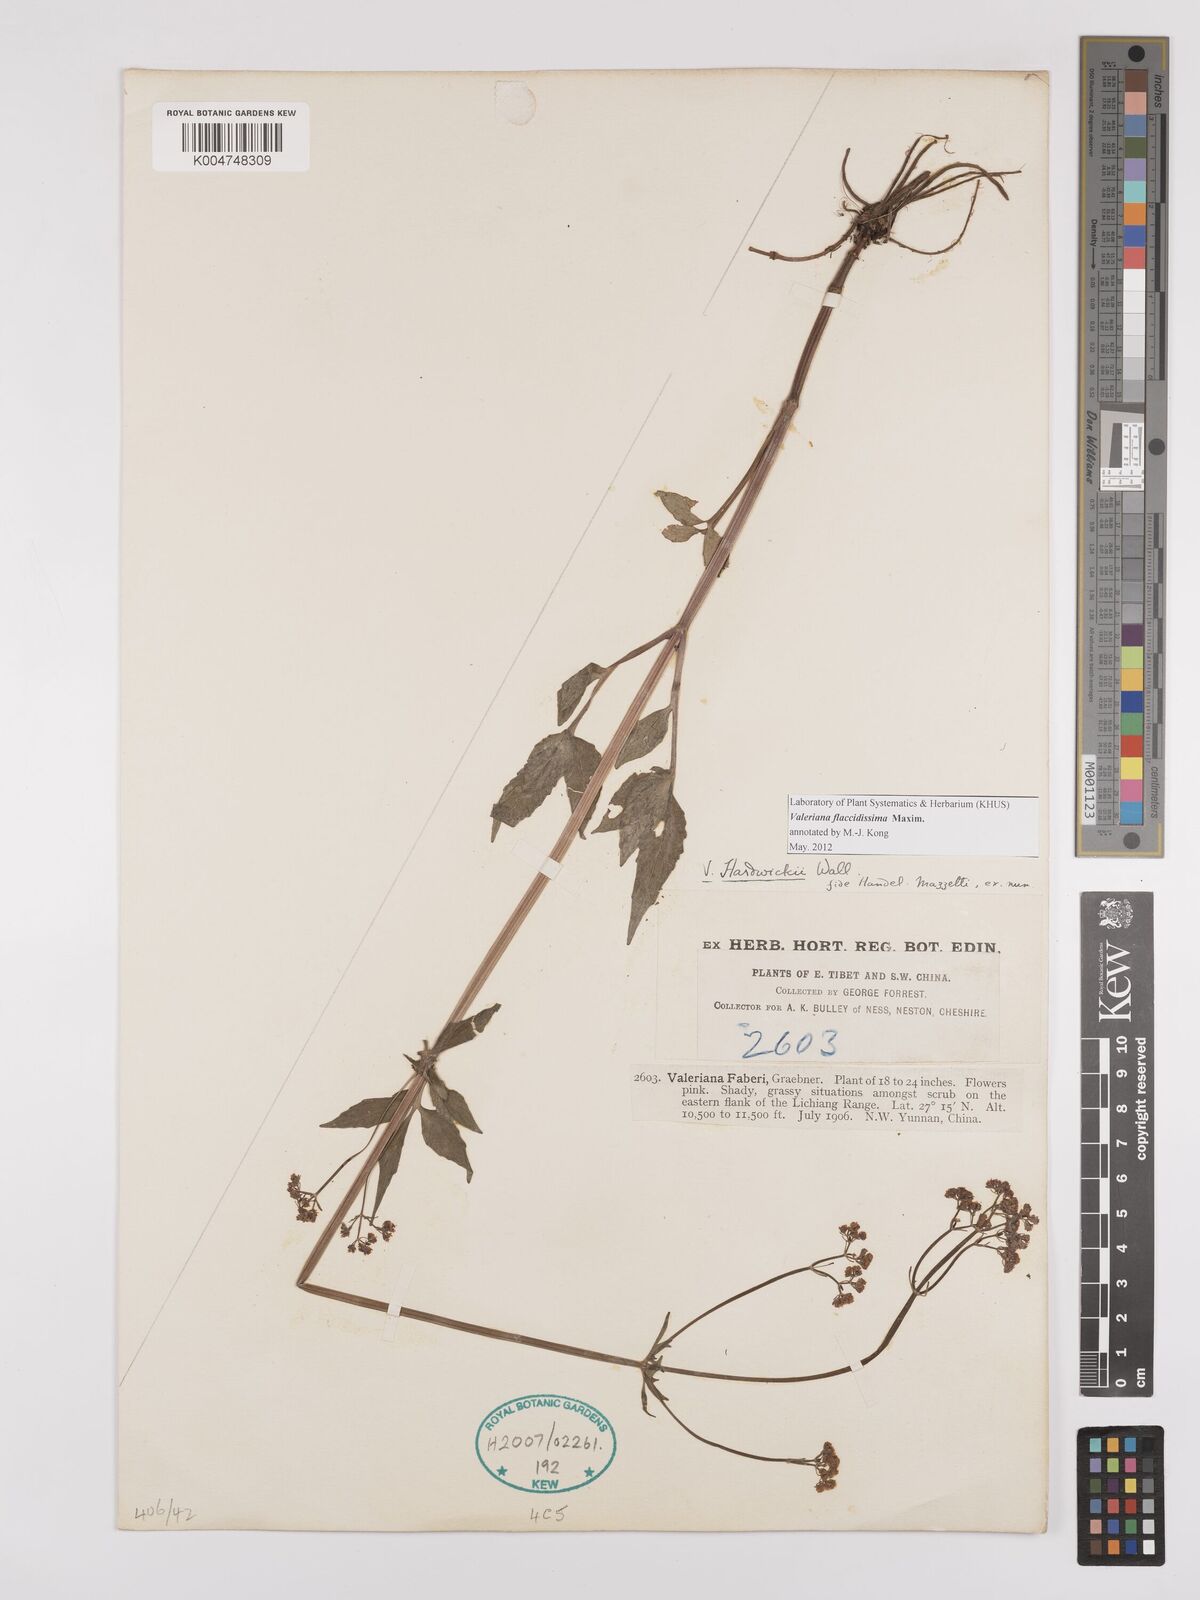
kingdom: Plantae
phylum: Tracheophyta
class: Magnoliopsida
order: Dipsacales
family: Caprifoliaceae
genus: Valeriana
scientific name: Valeriana flaccidissima
